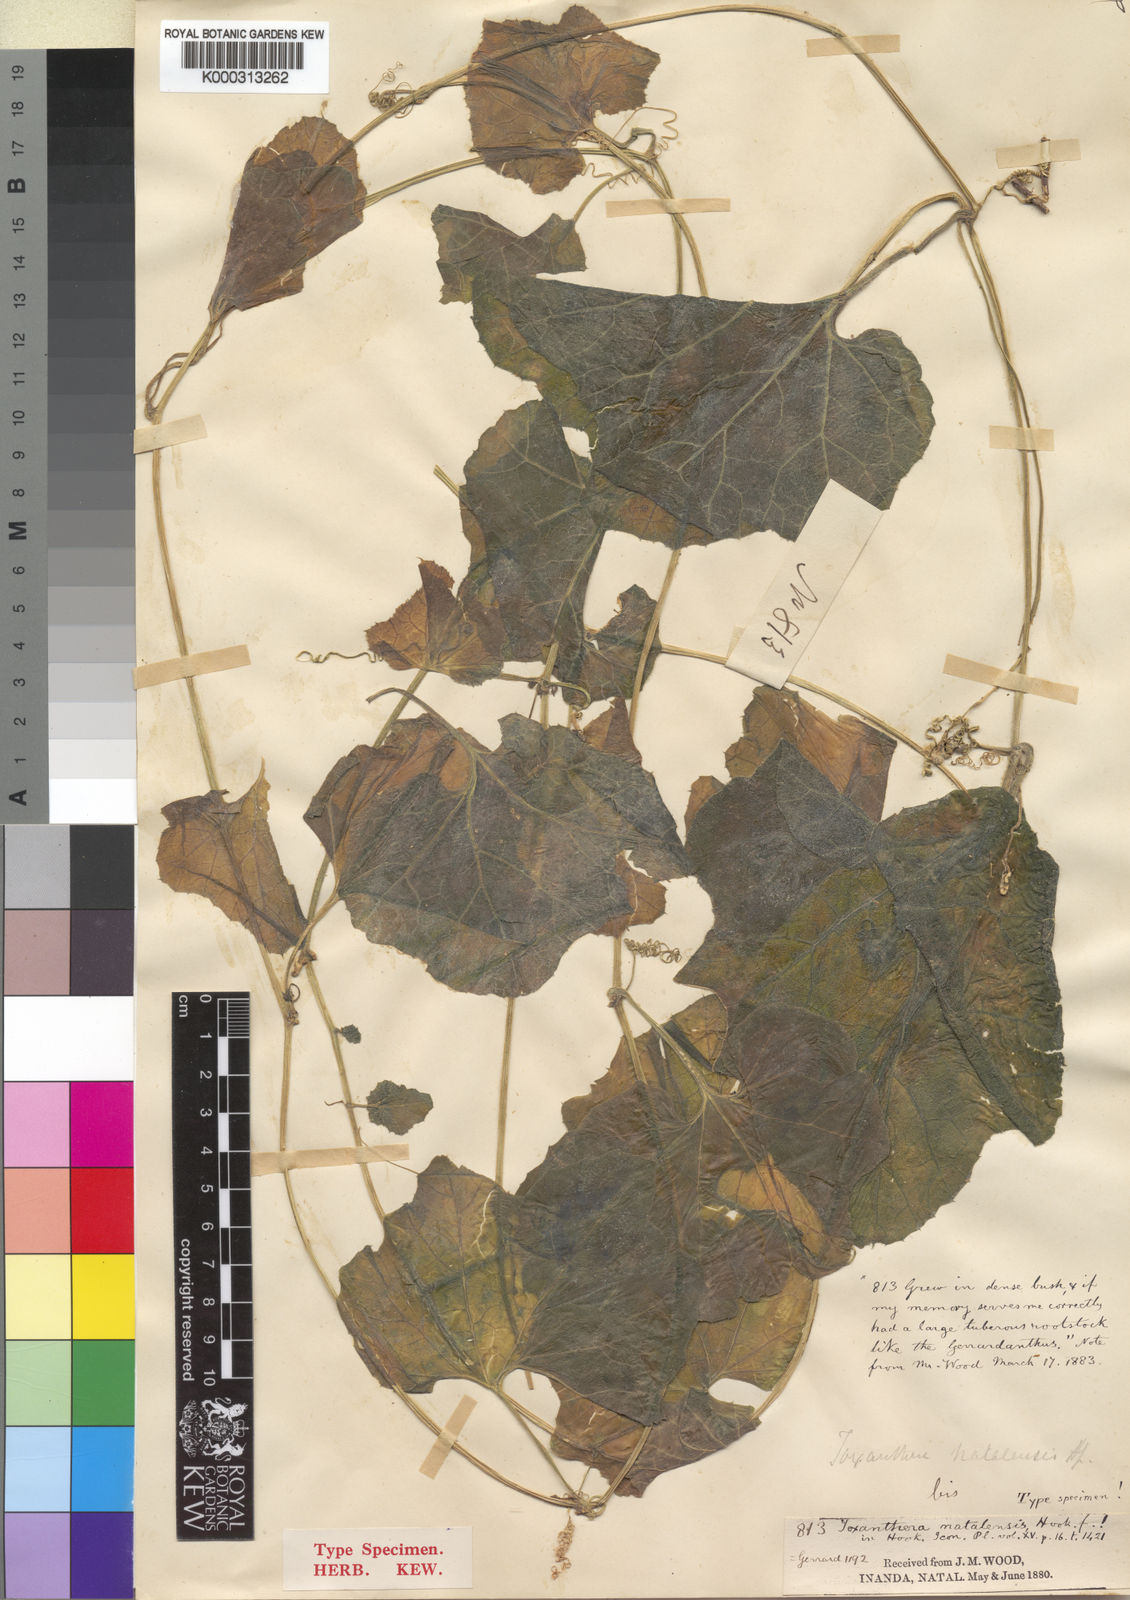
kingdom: Plantae
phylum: Tracheophyta
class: Magnoliopsida
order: Cucurbitales
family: Cucurbitaceae
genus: Kedrostis
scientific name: Kedrostis leloja
